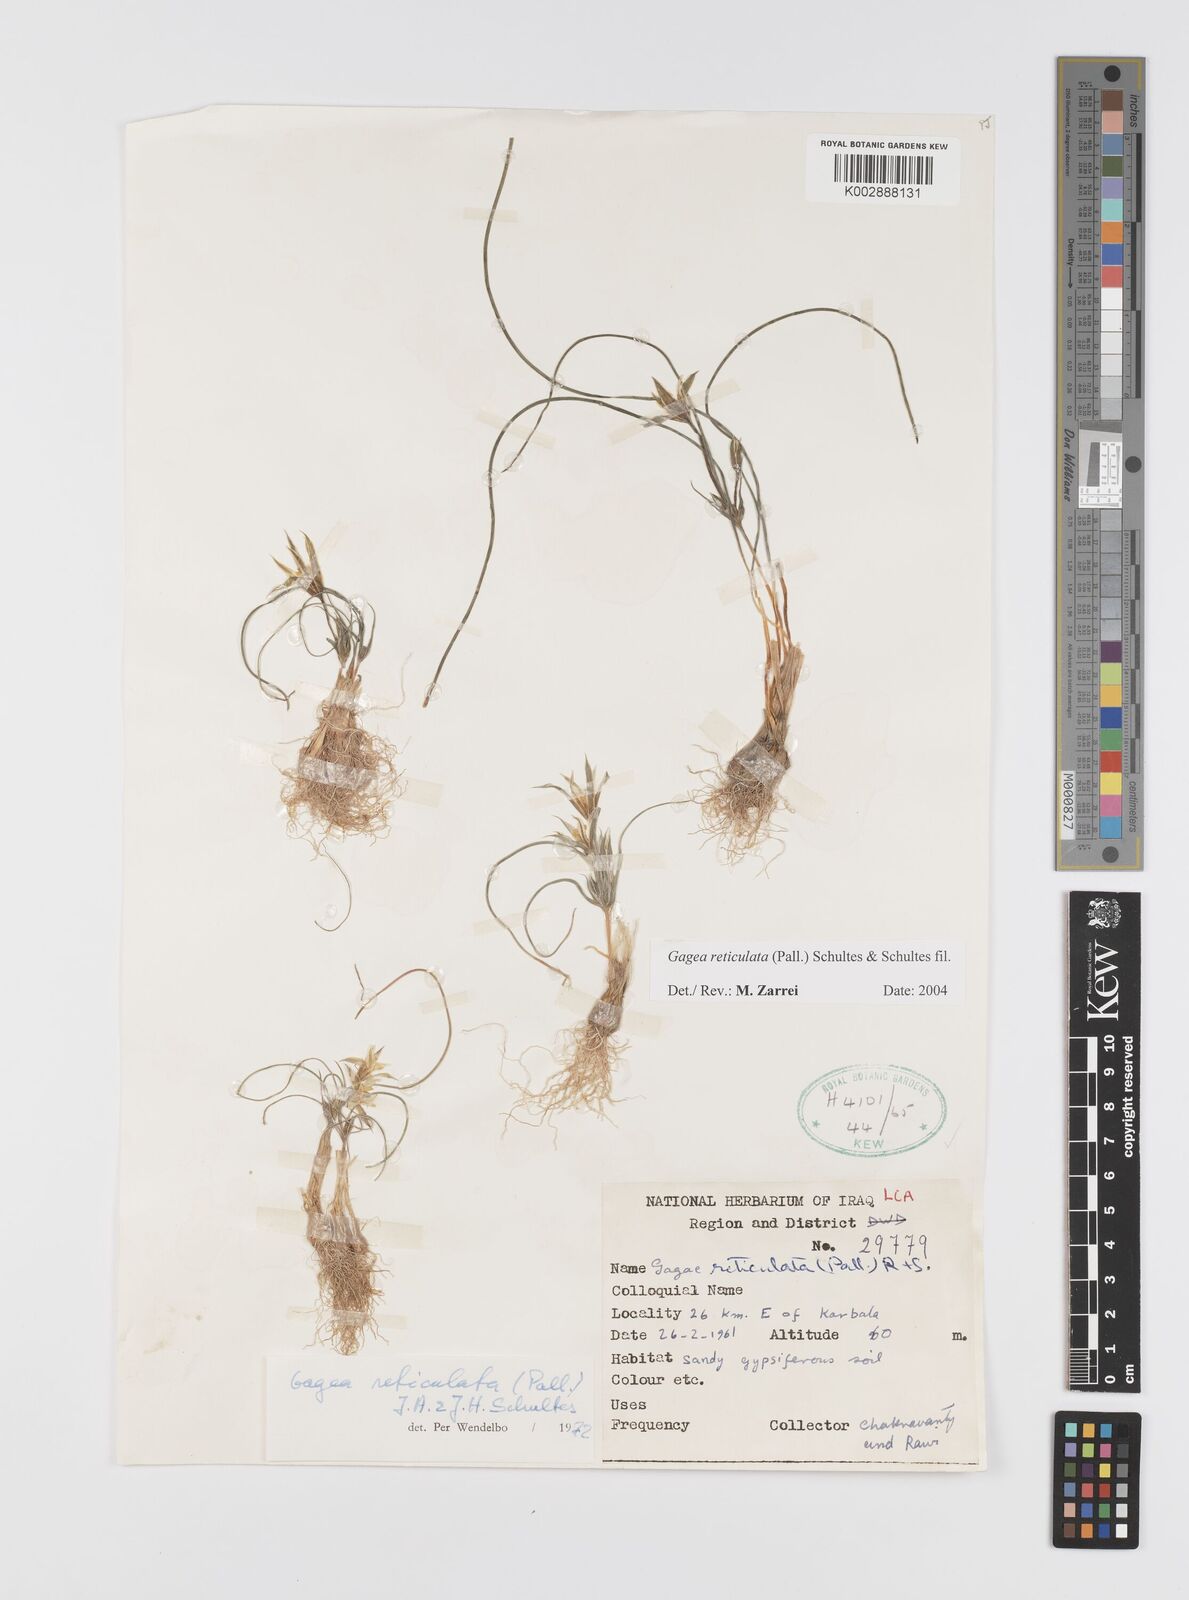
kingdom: Plantae
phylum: Tracheophyta
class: Liliopsida
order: Liliales
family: Liliaceae
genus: Gagea
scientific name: Gagea reticulata
